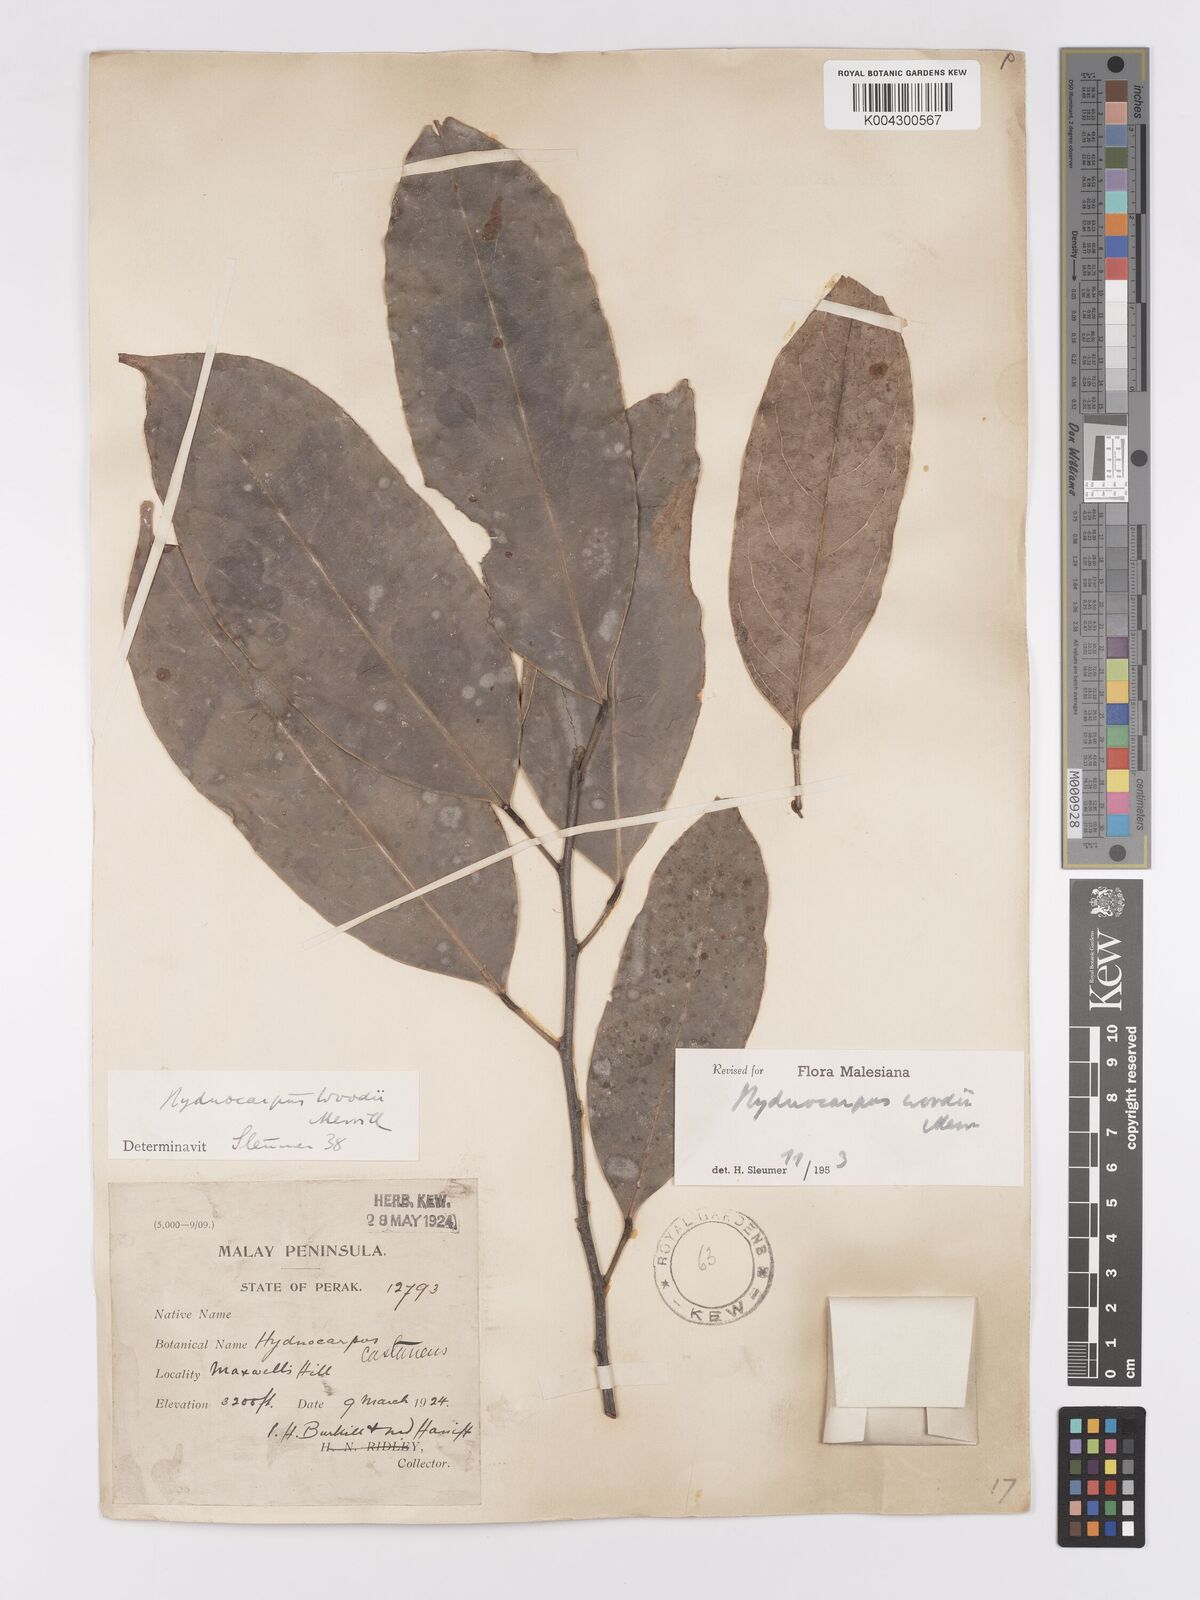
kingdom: Plantae
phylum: Tracheophyta
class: Magnoliopsida
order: Malpighiales
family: Achariaceae
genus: Hydnocarpus
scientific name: Hydnocarpus woodii
